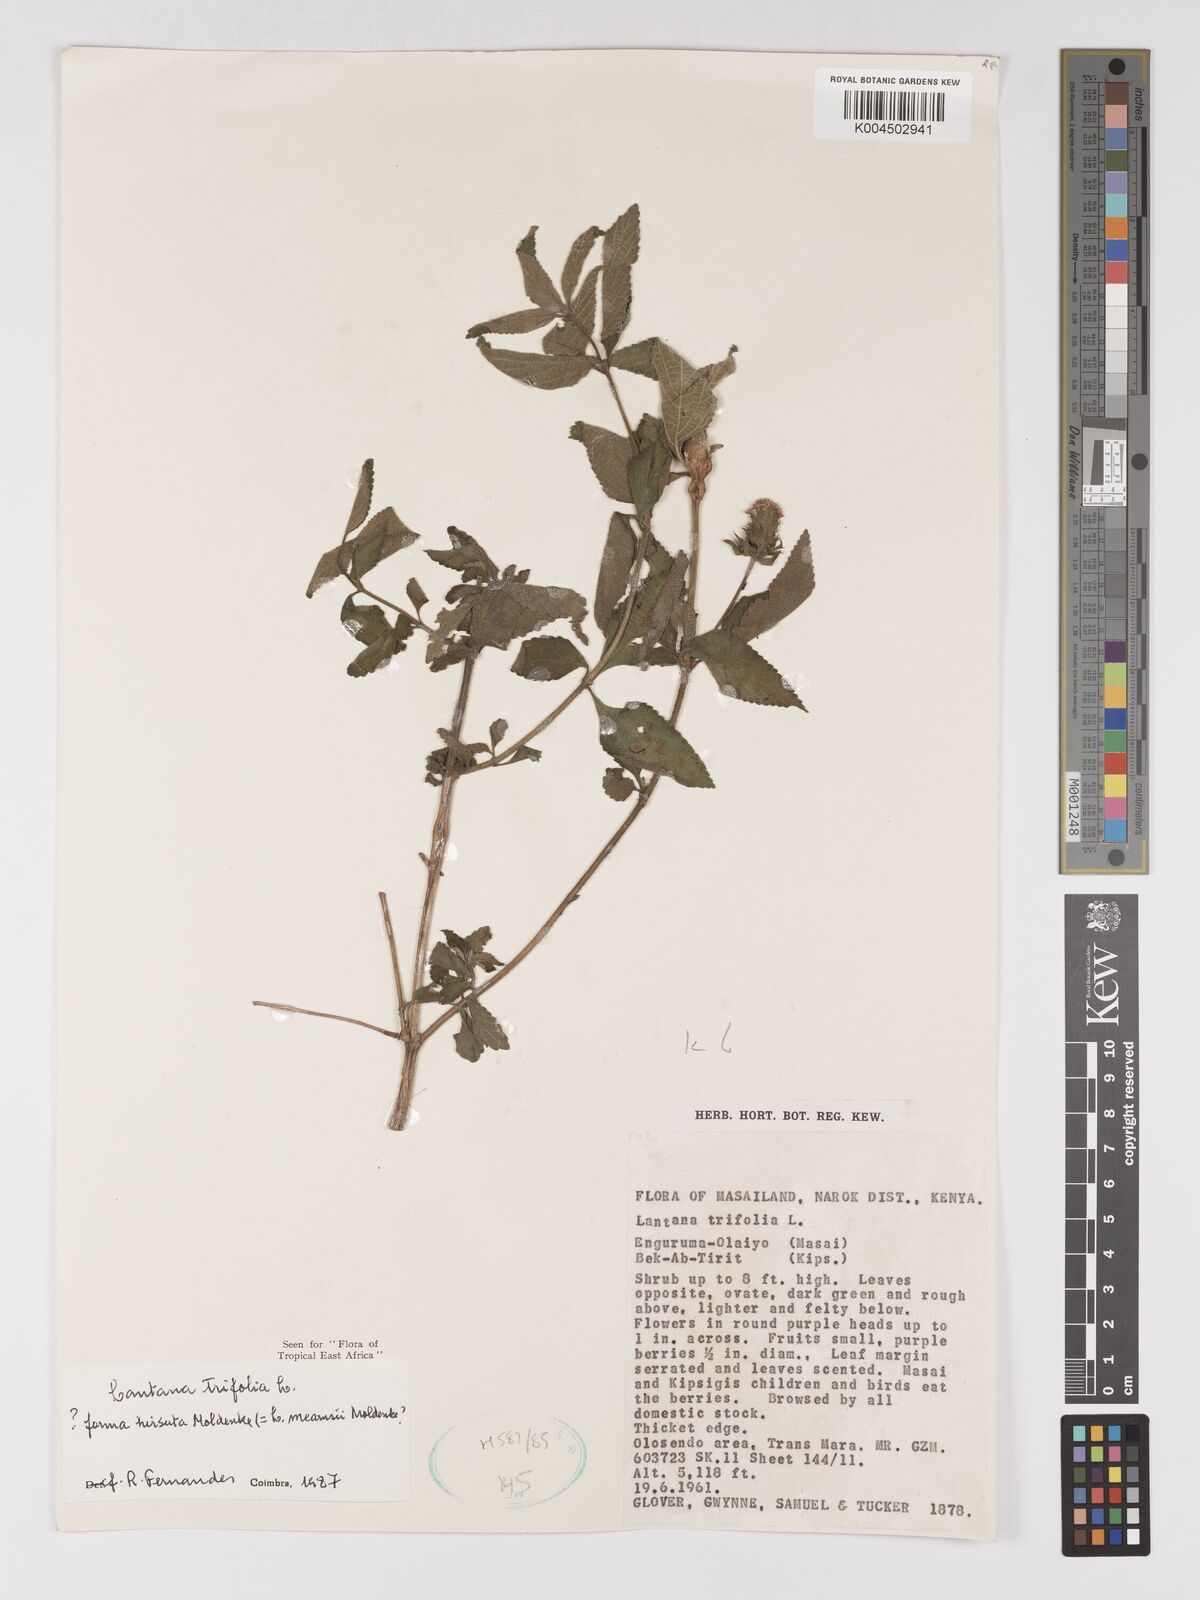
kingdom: Plantae
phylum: Tracheophyta
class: Magnoliopsida
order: Lamiales
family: Verbenaceae
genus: Lantana
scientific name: Lantana trifolia
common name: Sweet-sage
